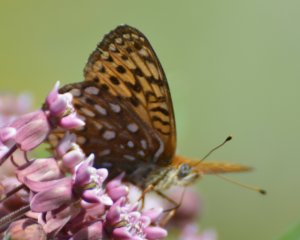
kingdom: Animalia
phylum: Arthropoda
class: Insecta
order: Lepidoptera
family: Nymphalidae
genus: Speyeria
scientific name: Speyeria atlantis
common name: Atlantis Fritillary
